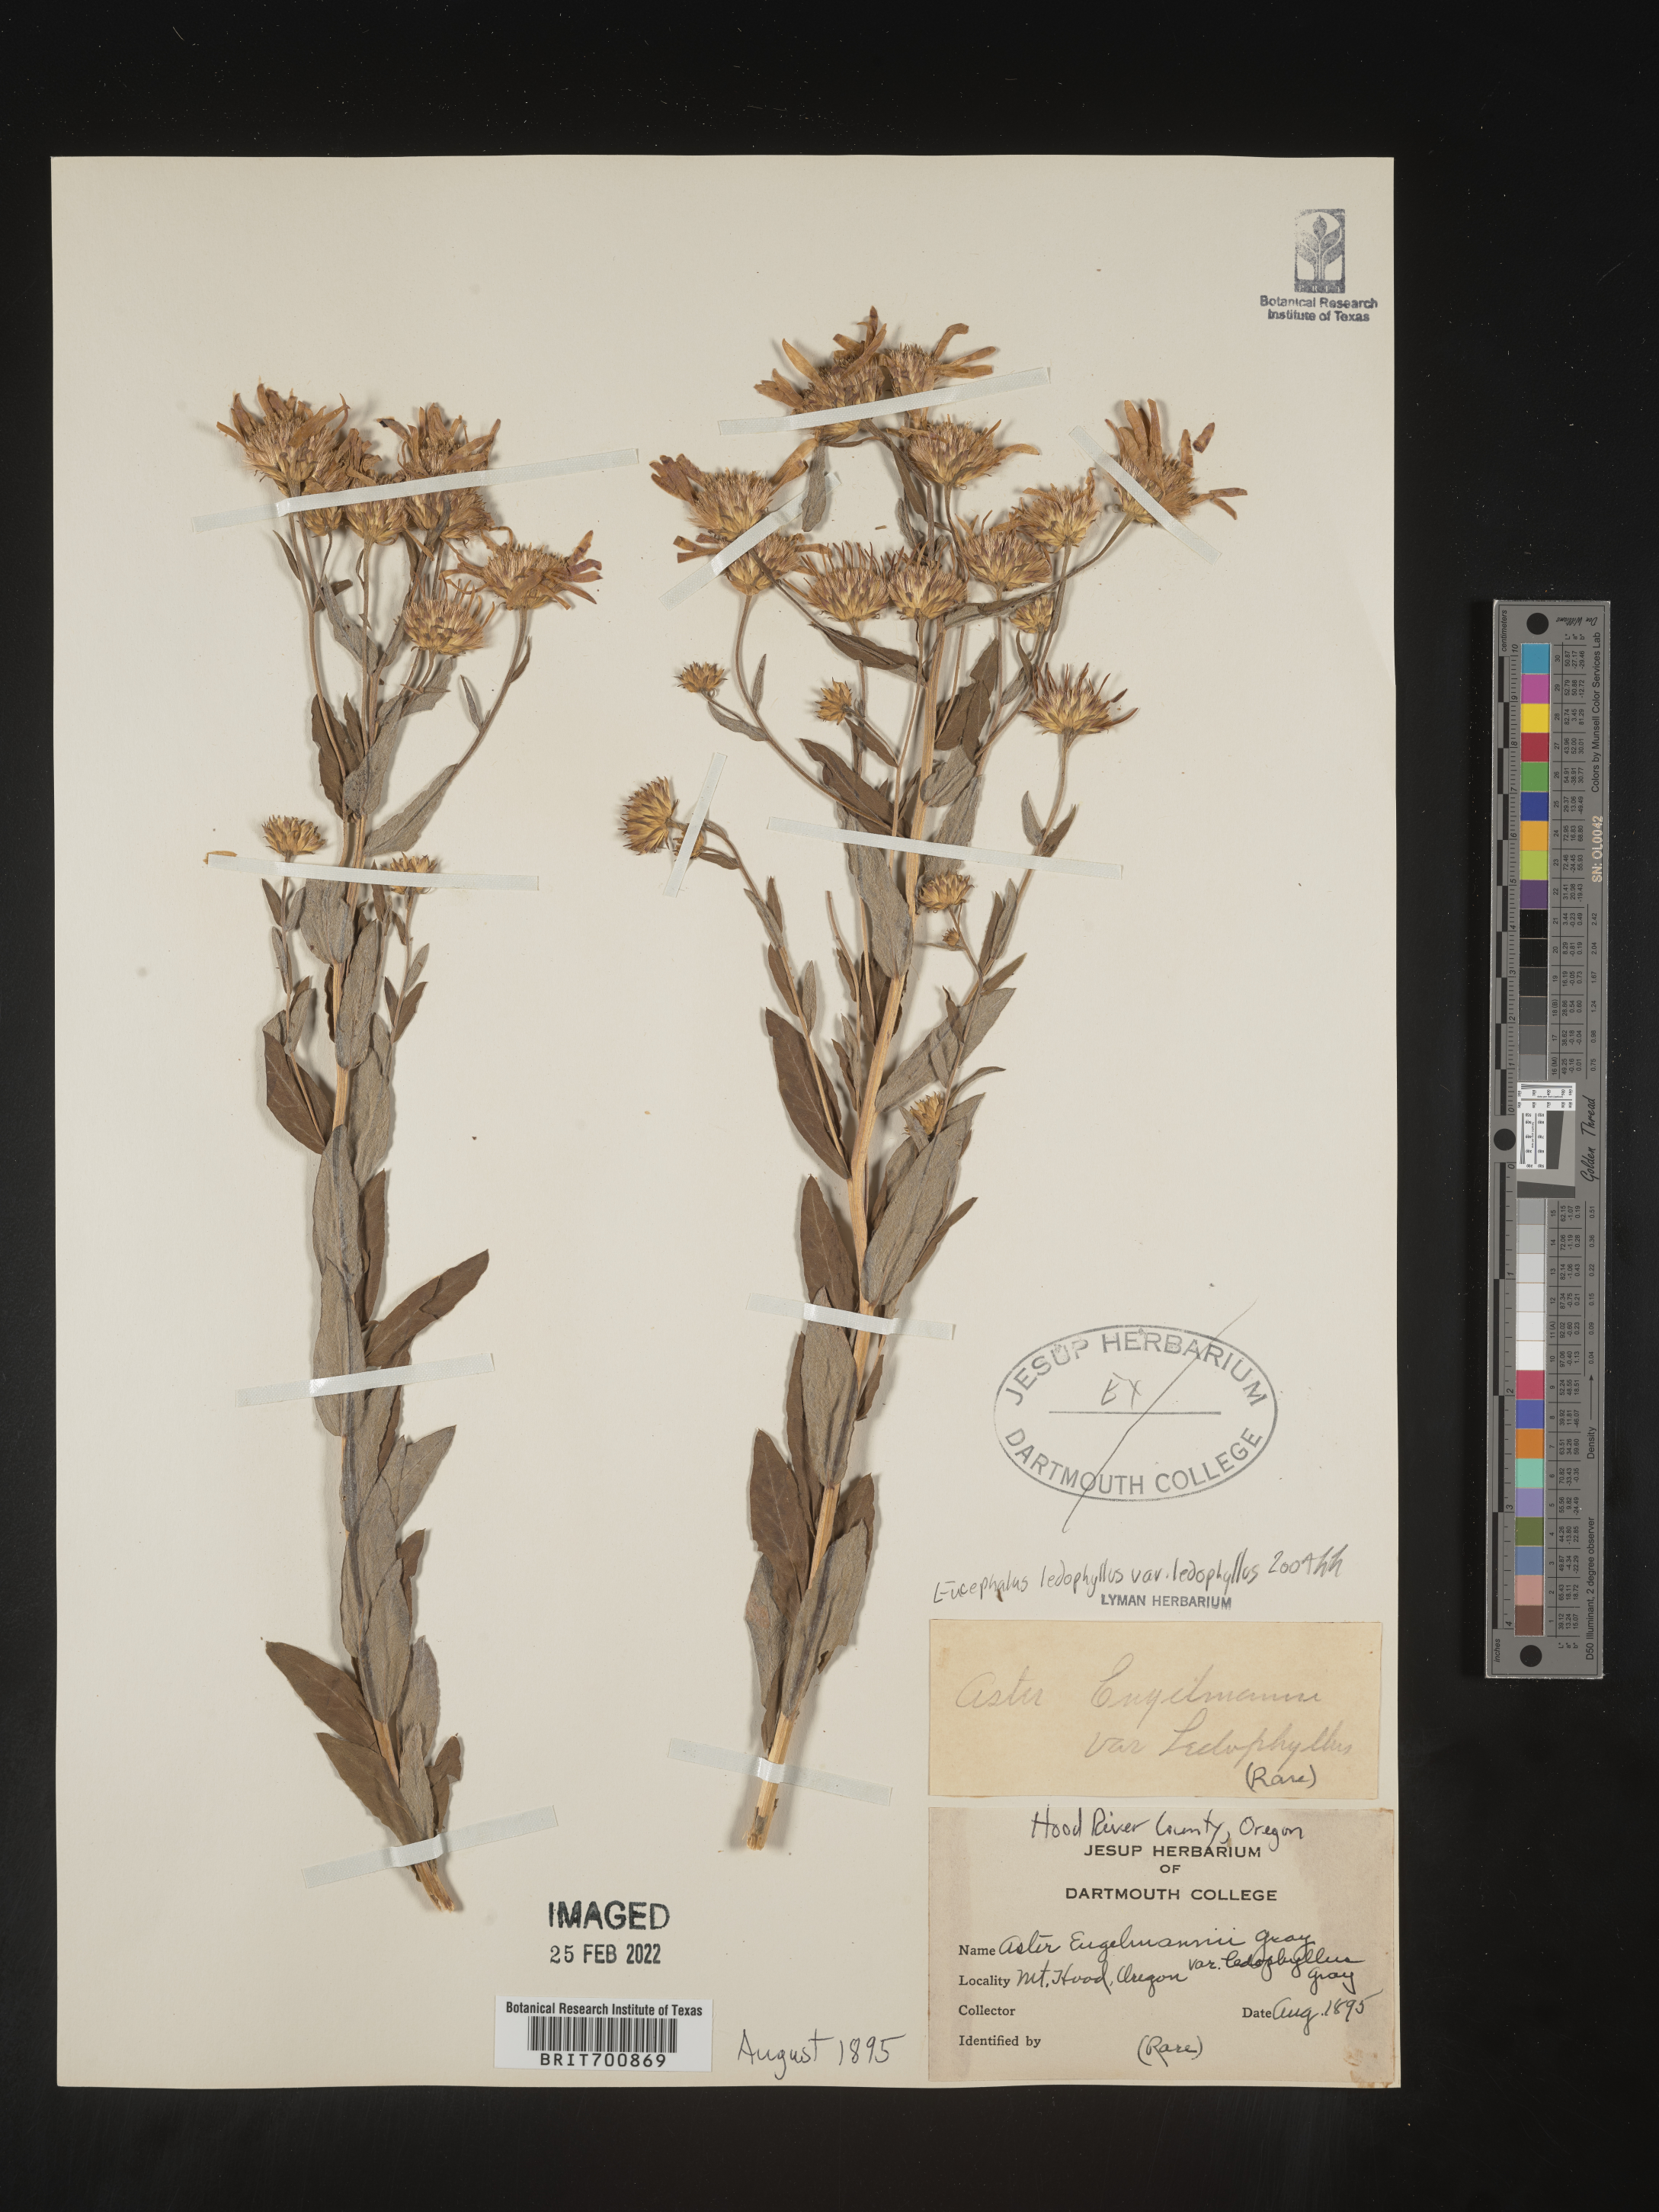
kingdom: Plantae
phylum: Tracheophyta
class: Magnoliopsida
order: Asterales
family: Asteraceae
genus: Eucephalus
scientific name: Eucephalus ledophyllus
